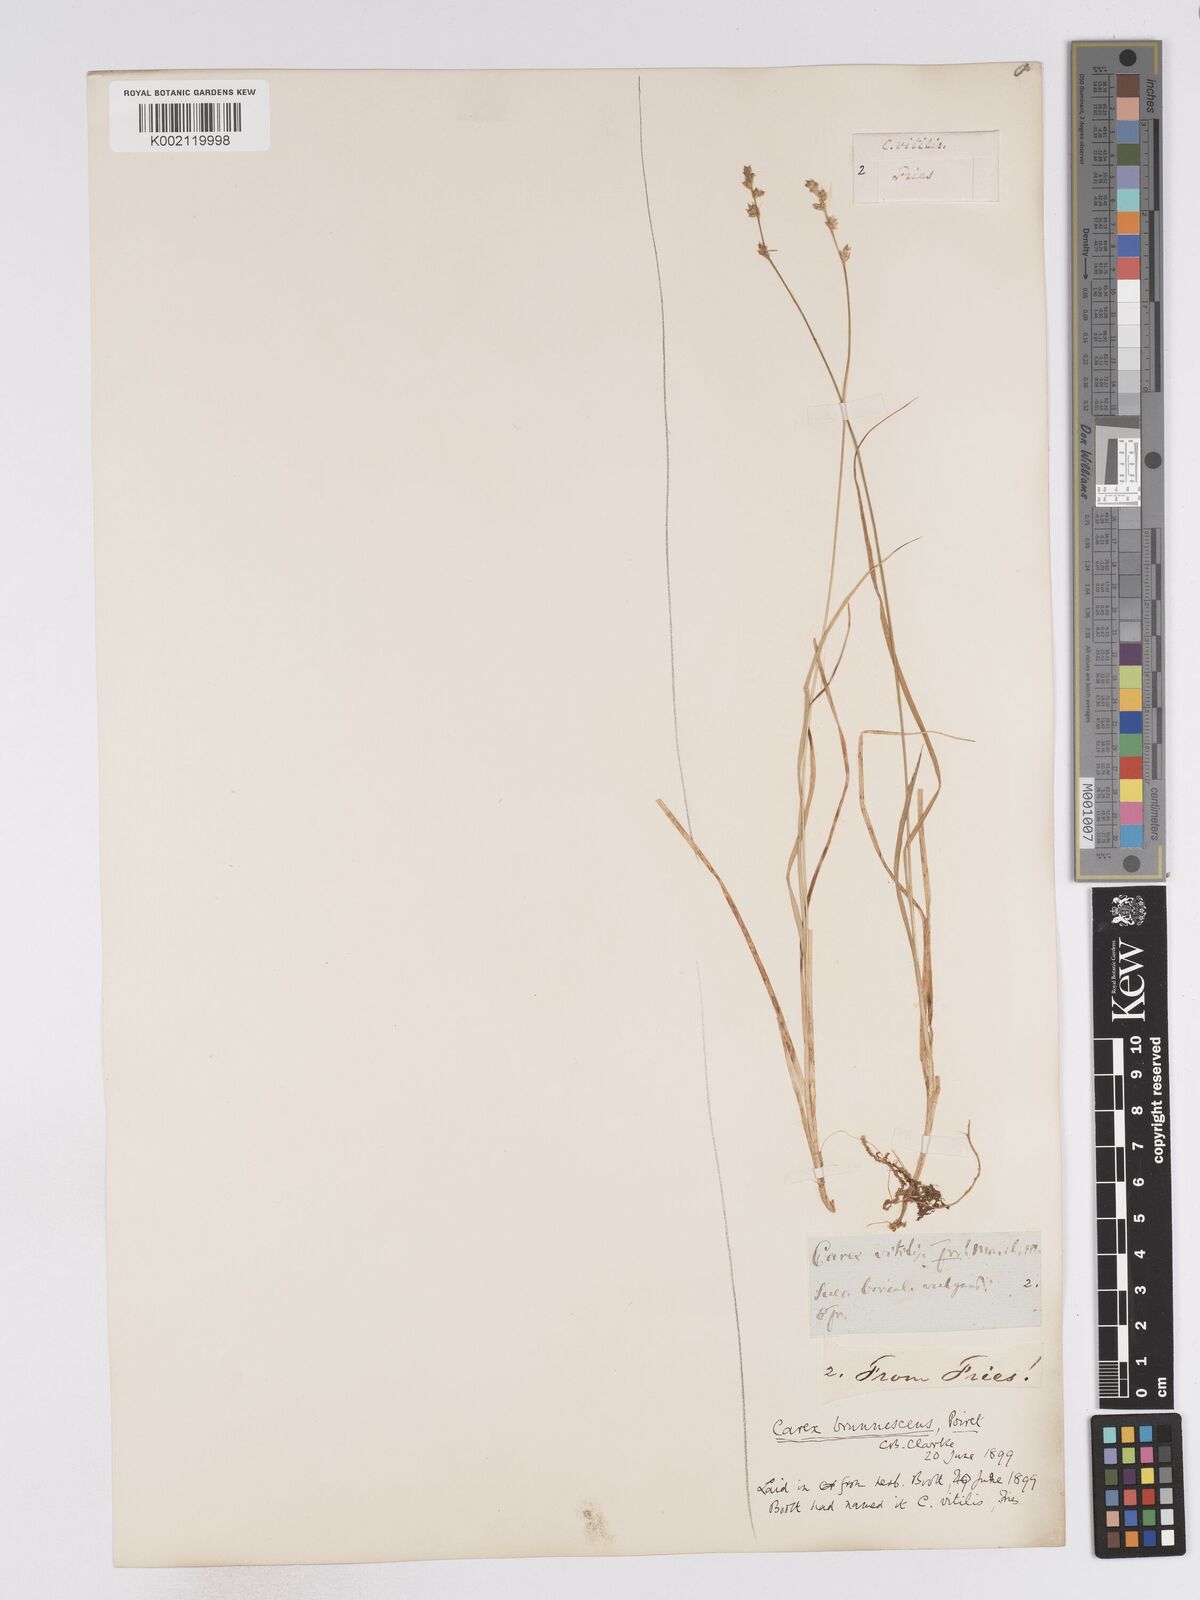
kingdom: Plantae
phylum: Tracheophyta
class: Liliopsida
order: Poales
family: Cyperaceae
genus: Carex
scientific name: Carex brunnescens
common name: Brown sedge
